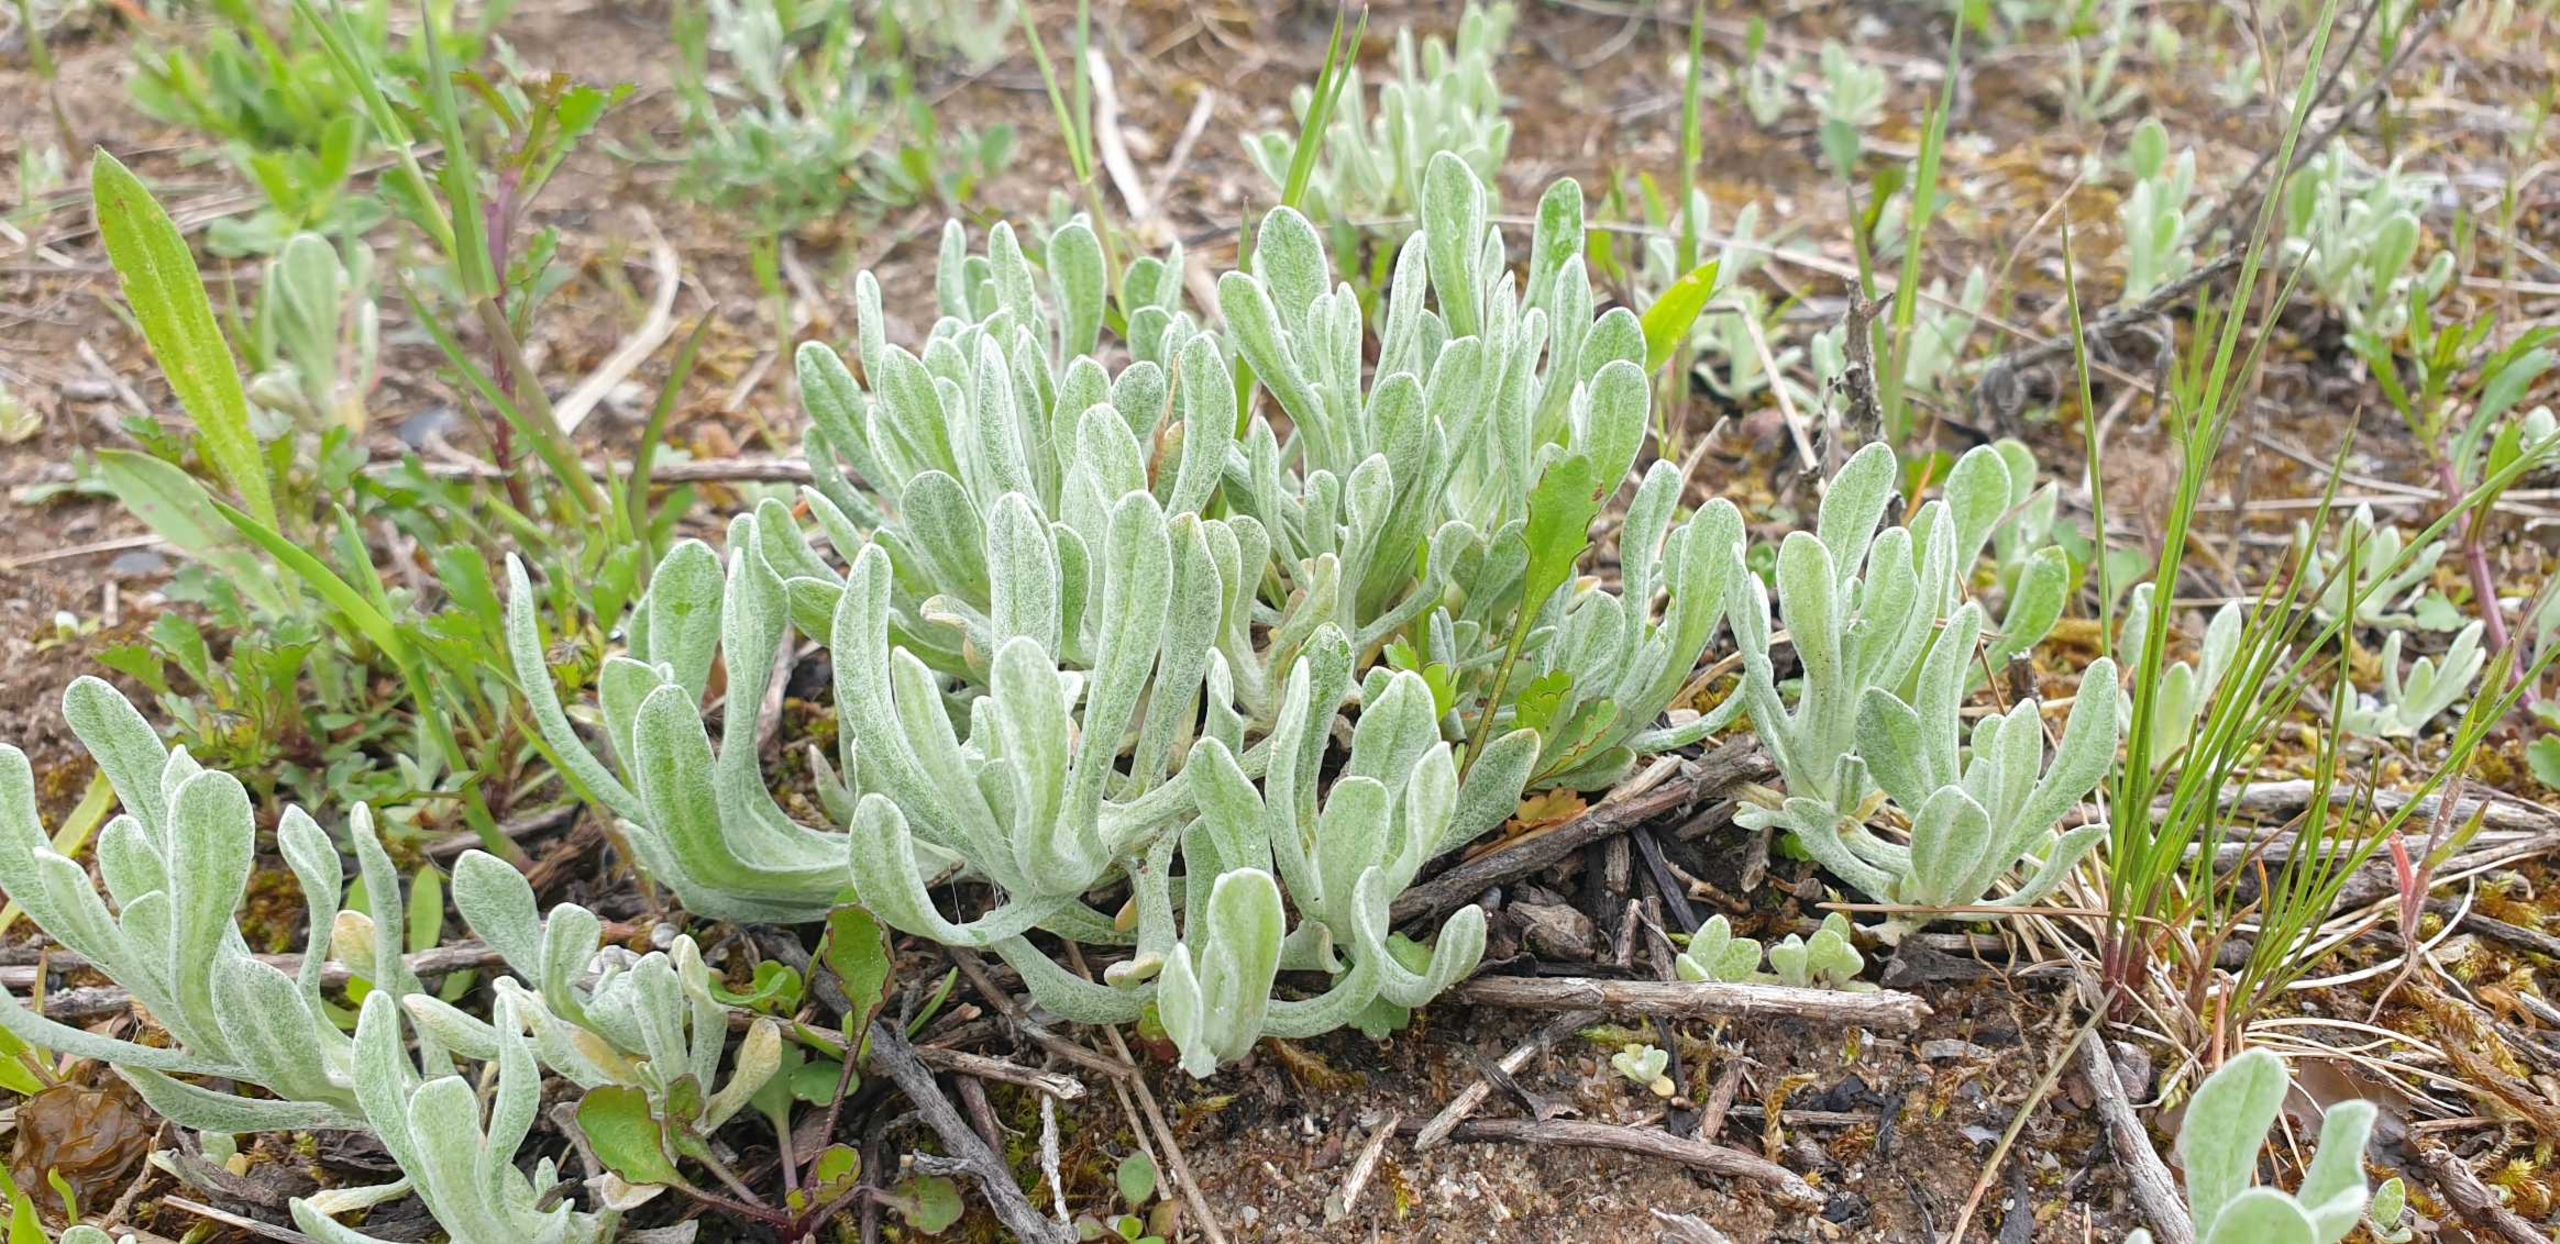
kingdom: Plantae
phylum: Tracheophyta
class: Magnoliopsida
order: Asterales
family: Asteraceae
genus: Helichrysum
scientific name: Helichrysum arenarium
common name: Gul evighedsblomst
